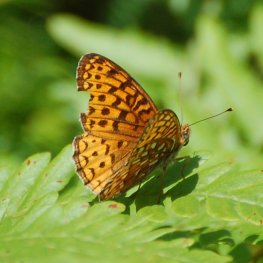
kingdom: Animalia
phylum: Arthropoda
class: Insecta
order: Lepidoptera
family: Nymphalidae
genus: Speyeria
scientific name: Speyeria atlantis
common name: Atlantis Fritillary
